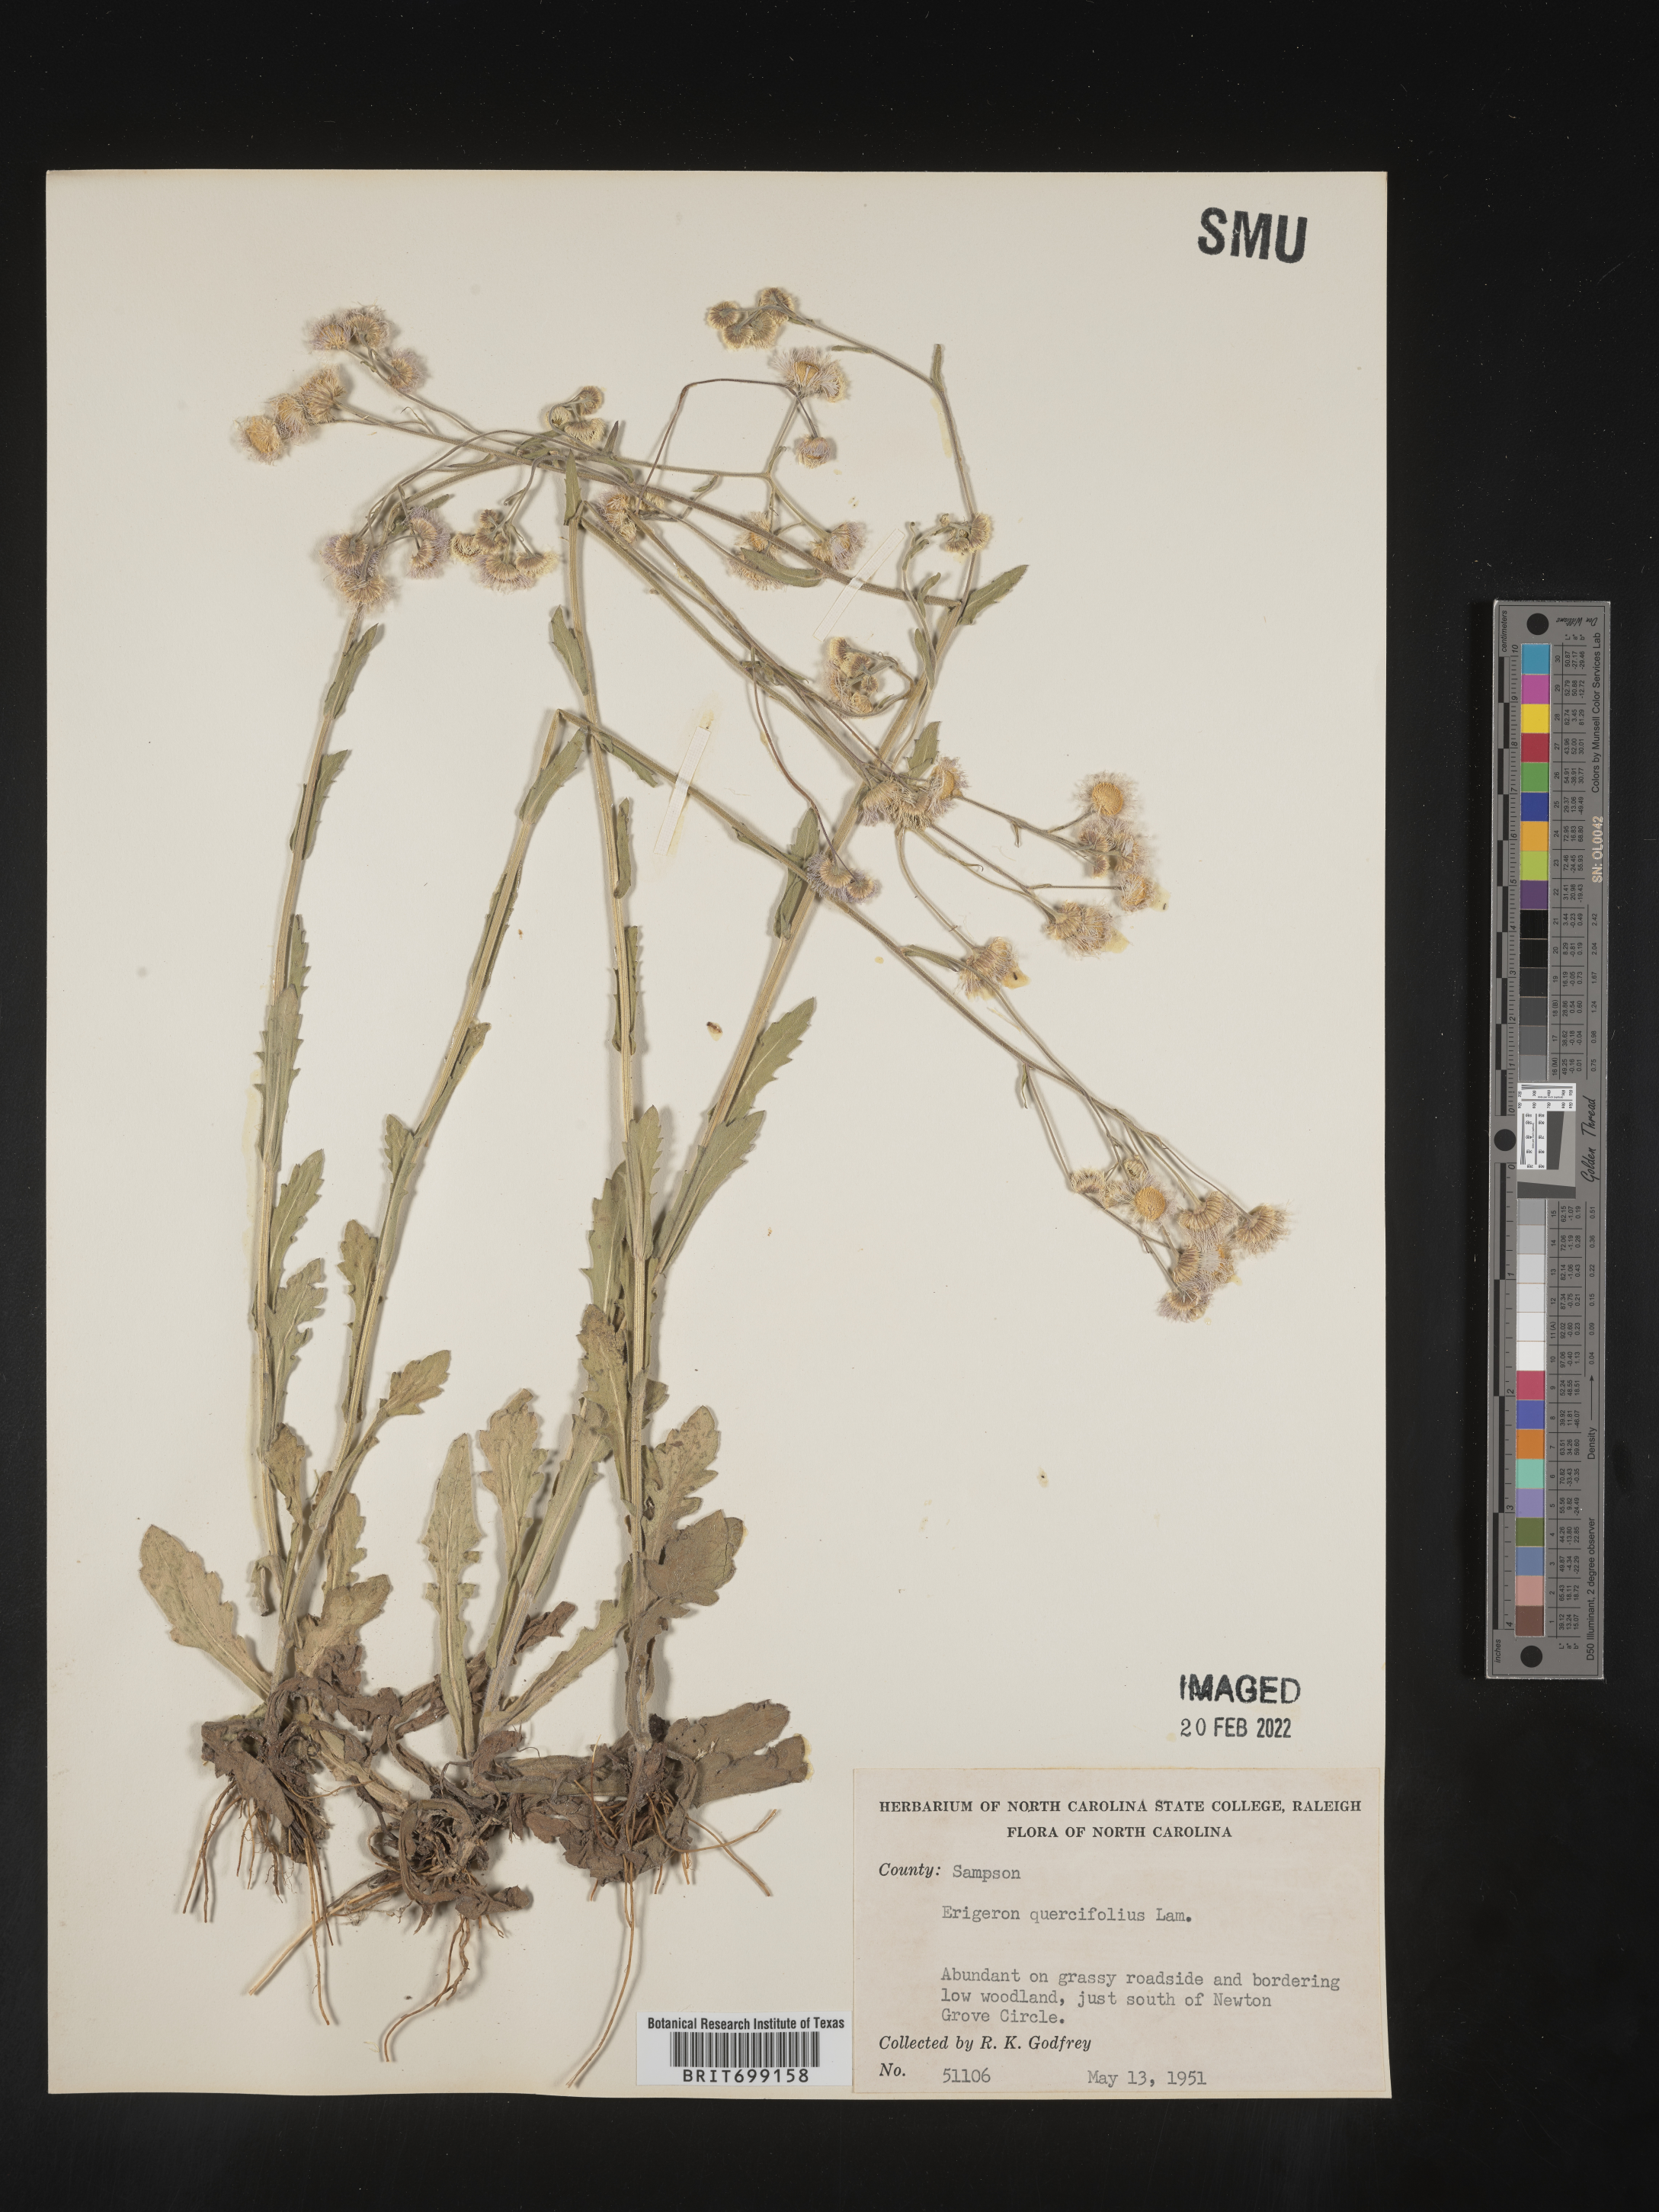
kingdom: Plantae
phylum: Tracheophyta
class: Magnoliopsida
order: Asterales
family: Asteraceae
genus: Erigeron
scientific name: Erigeron quercifolius
